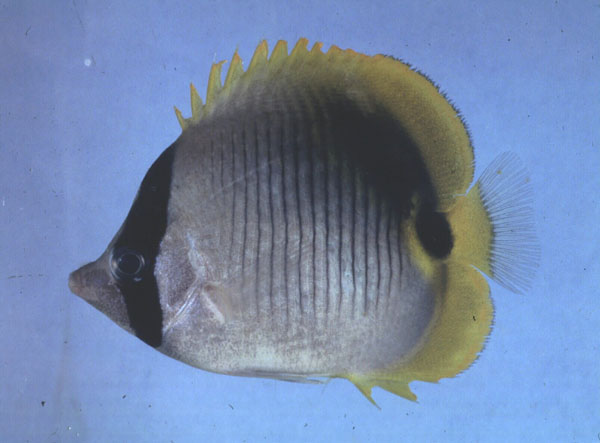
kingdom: Animalia
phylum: Chordata
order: Perciformes
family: Chaetodontidae
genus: Chaetodon
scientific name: Chaetodon lineolatus
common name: Lined butterflyfish
